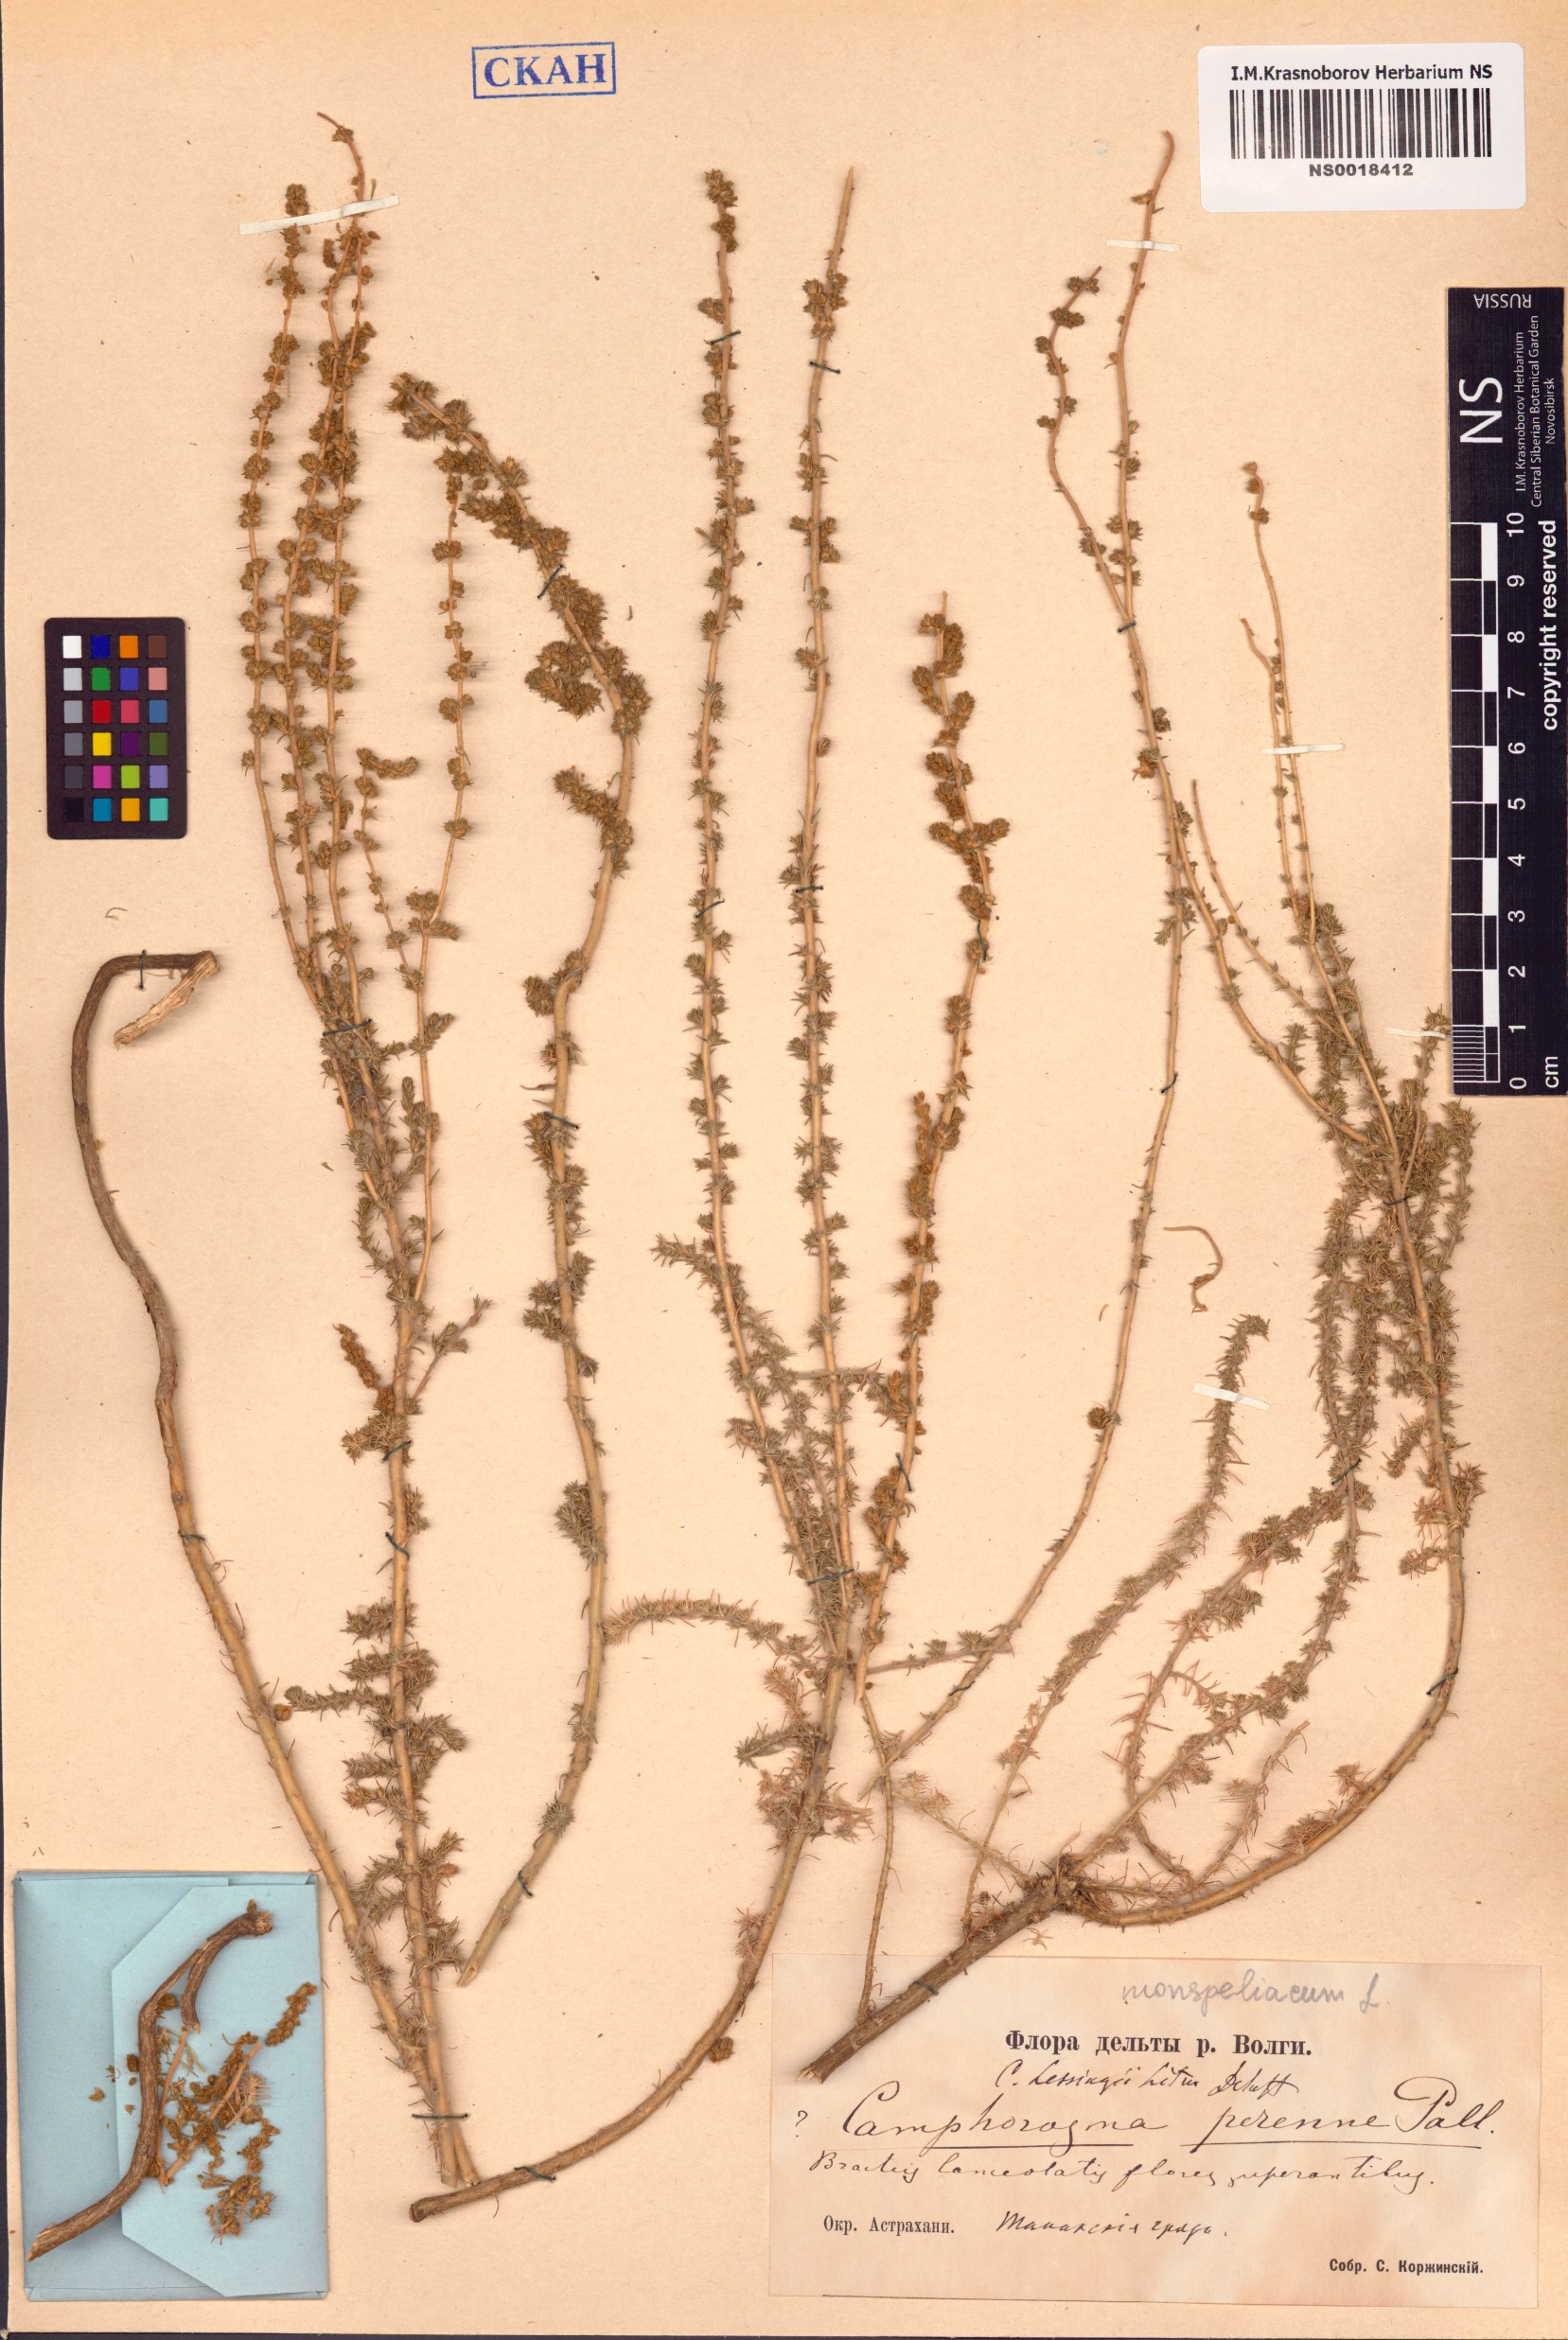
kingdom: Plantae
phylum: Tracheophyta
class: Magnoliopsida
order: Caryophyllales
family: Amaranthaceae
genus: Camphorosma
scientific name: Camphorosma monspeliaca
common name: Camphorfume
